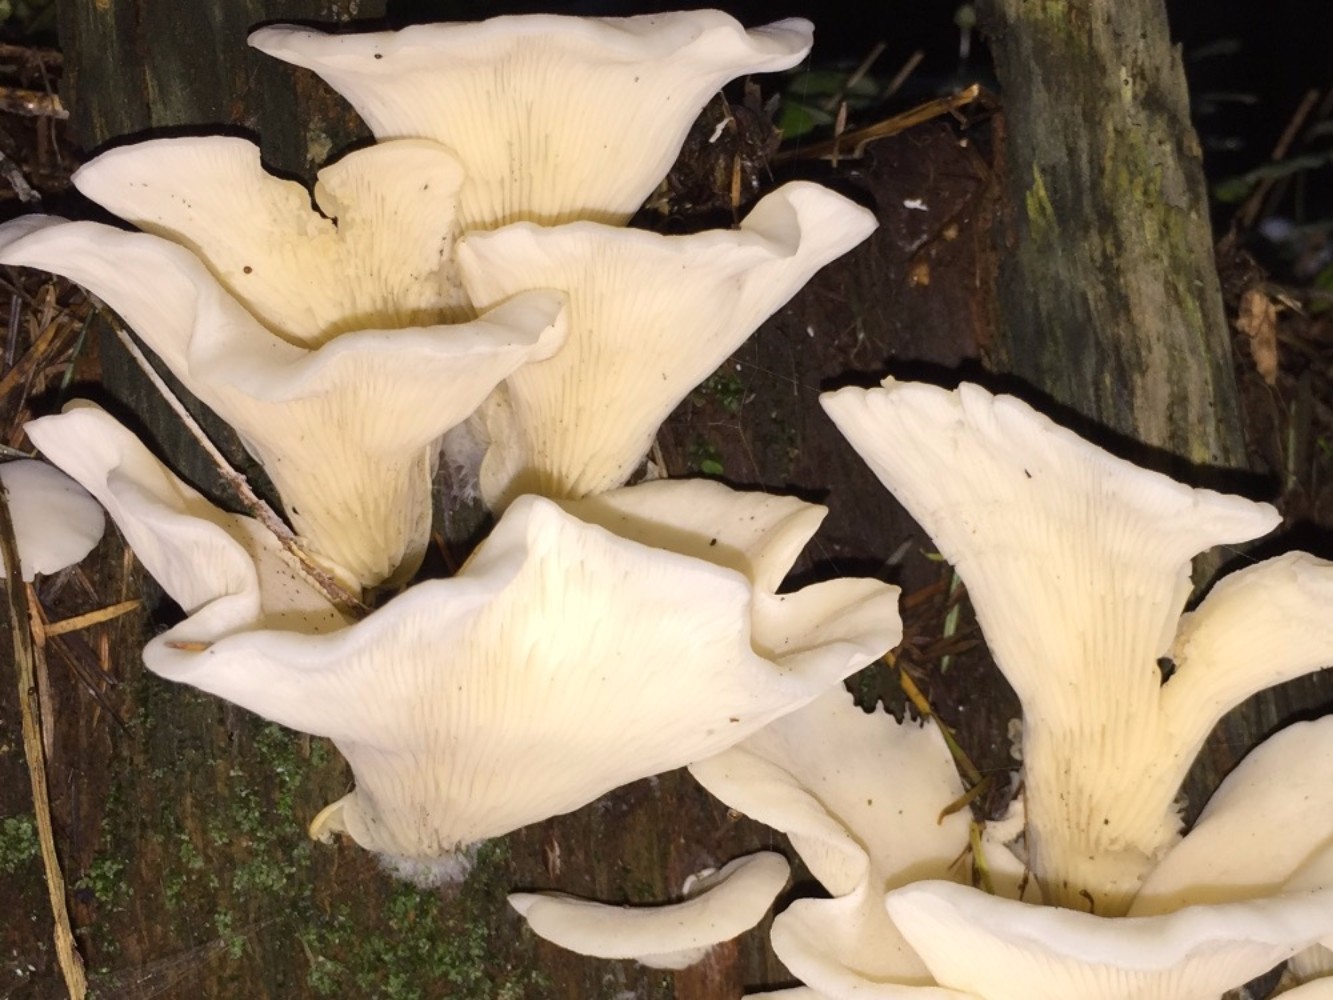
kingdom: Fungi
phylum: Basidiomycota
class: Agaricomycetes
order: Agaricales
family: Marasmiaceae
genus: Pleurocybella
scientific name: Pleurocybella porrigens
